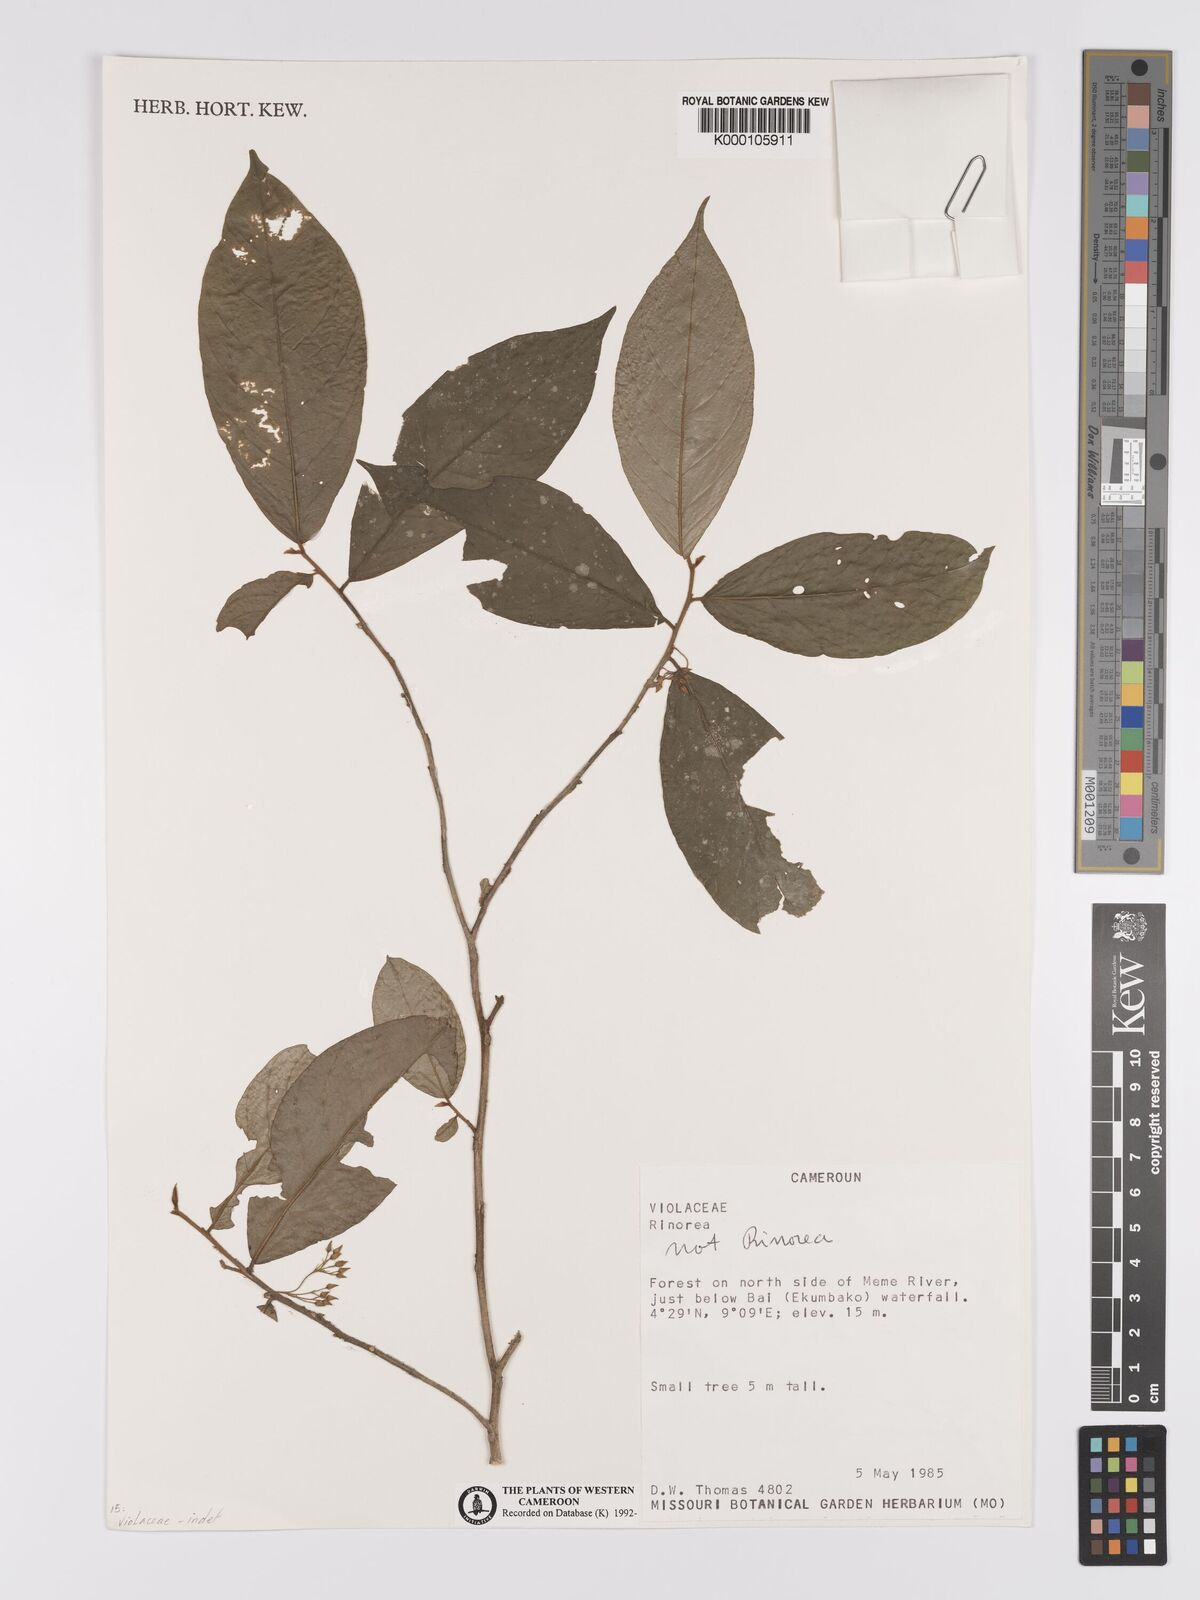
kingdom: Plantae
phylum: Tracheophyta
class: Magnoliopsida
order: Celastrales
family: Celastraceae
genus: Campylostemon
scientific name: Campylostemon
